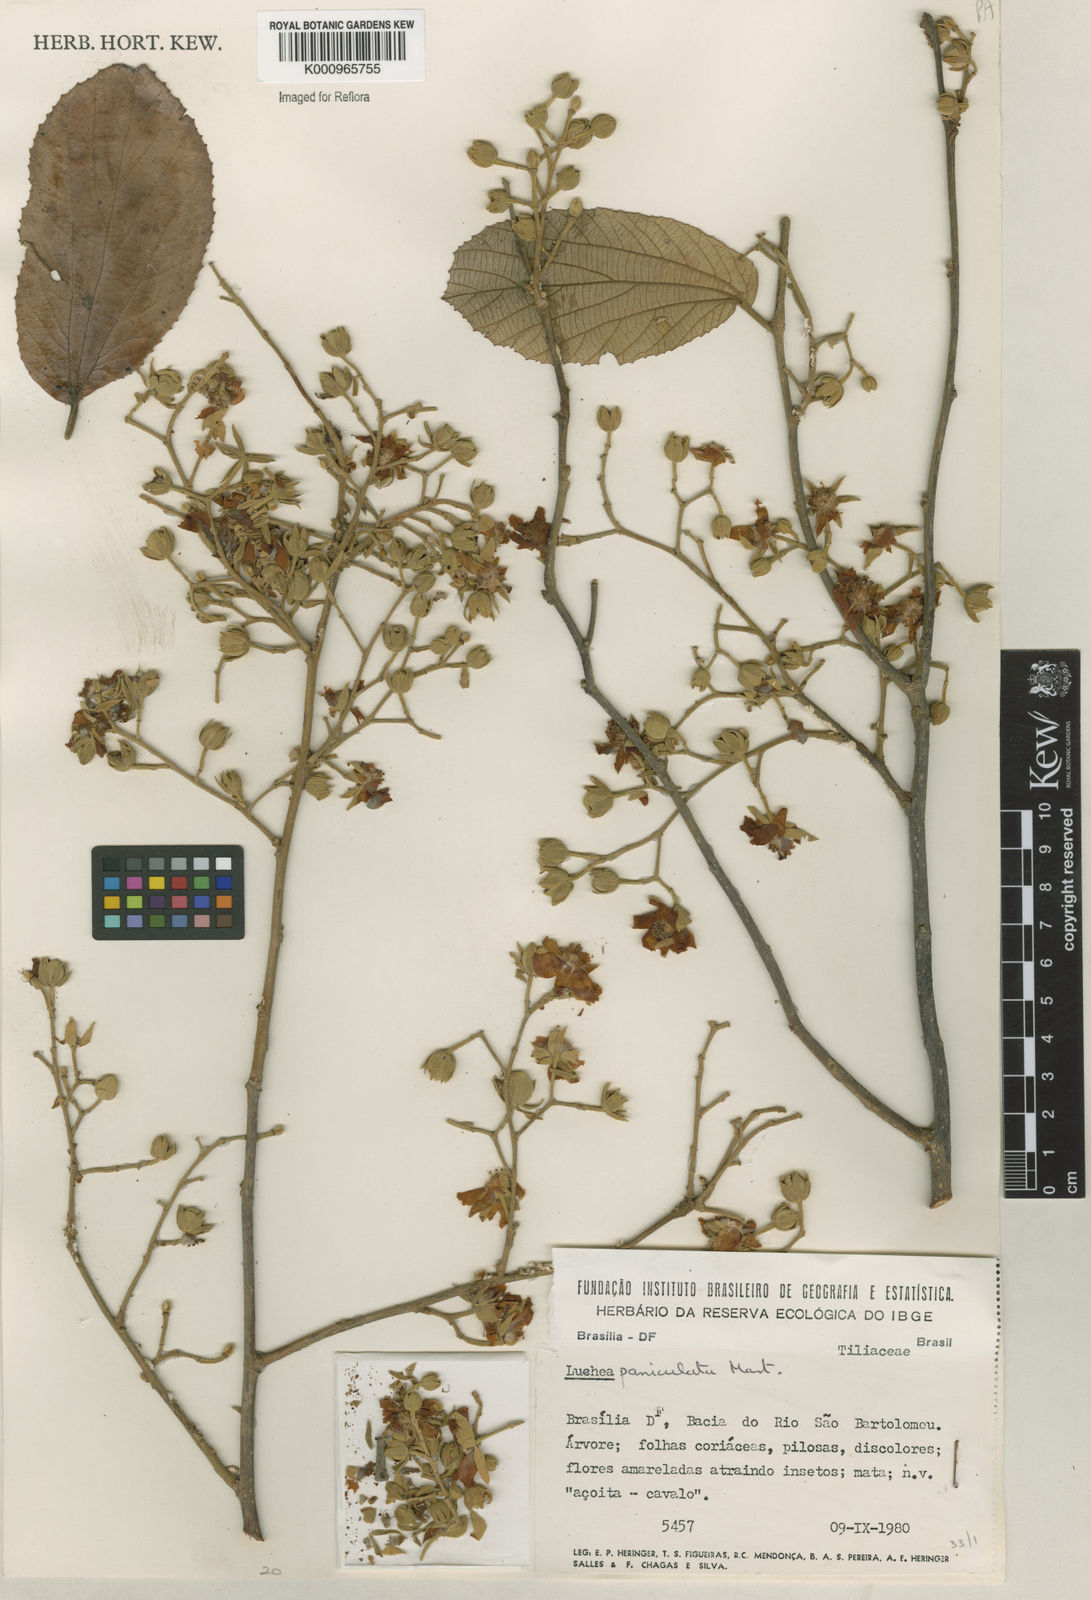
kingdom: Plantae
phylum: Tracheophyta
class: Magnoliopsida
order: Malvales
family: Malvaceae
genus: Luehea
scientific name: Luehea paniculata
